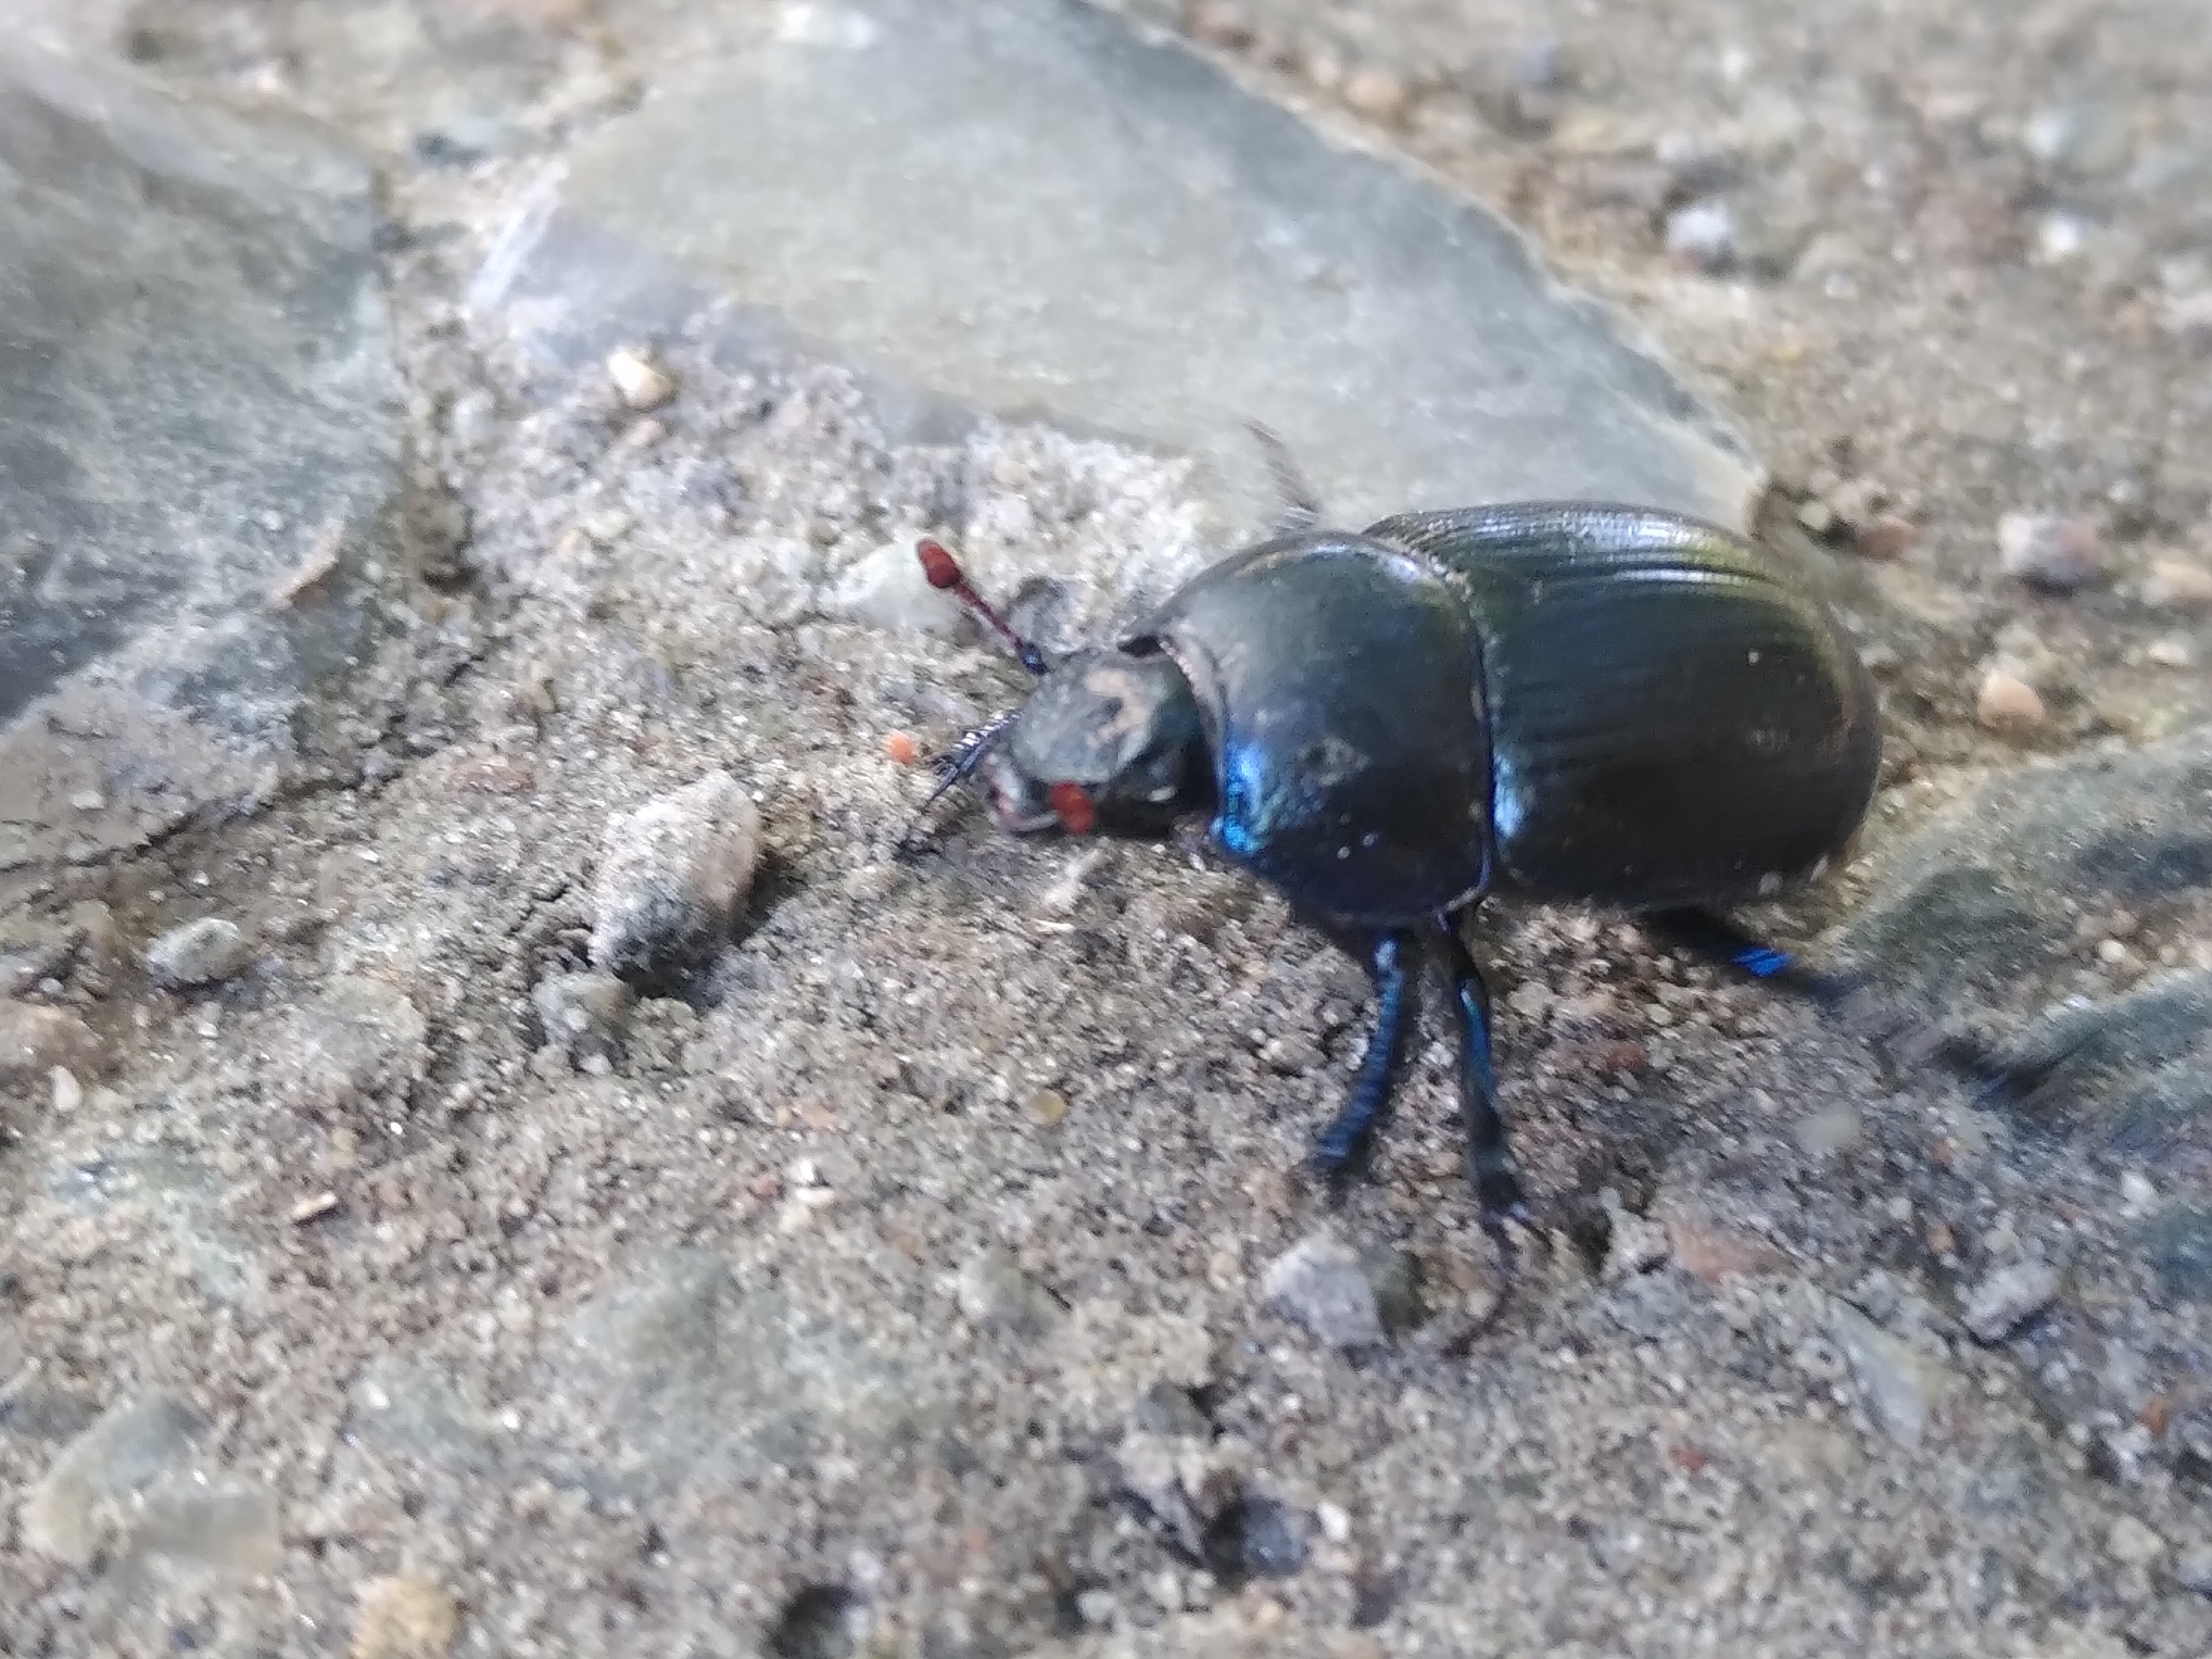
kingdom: Animalia
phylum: Arthropoda
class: Insecta
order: Coleoptera
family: Geotrupidae
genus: Anoplotrupes
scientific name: Anoplotrupes stercorosus
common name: Skovskarnbasse
